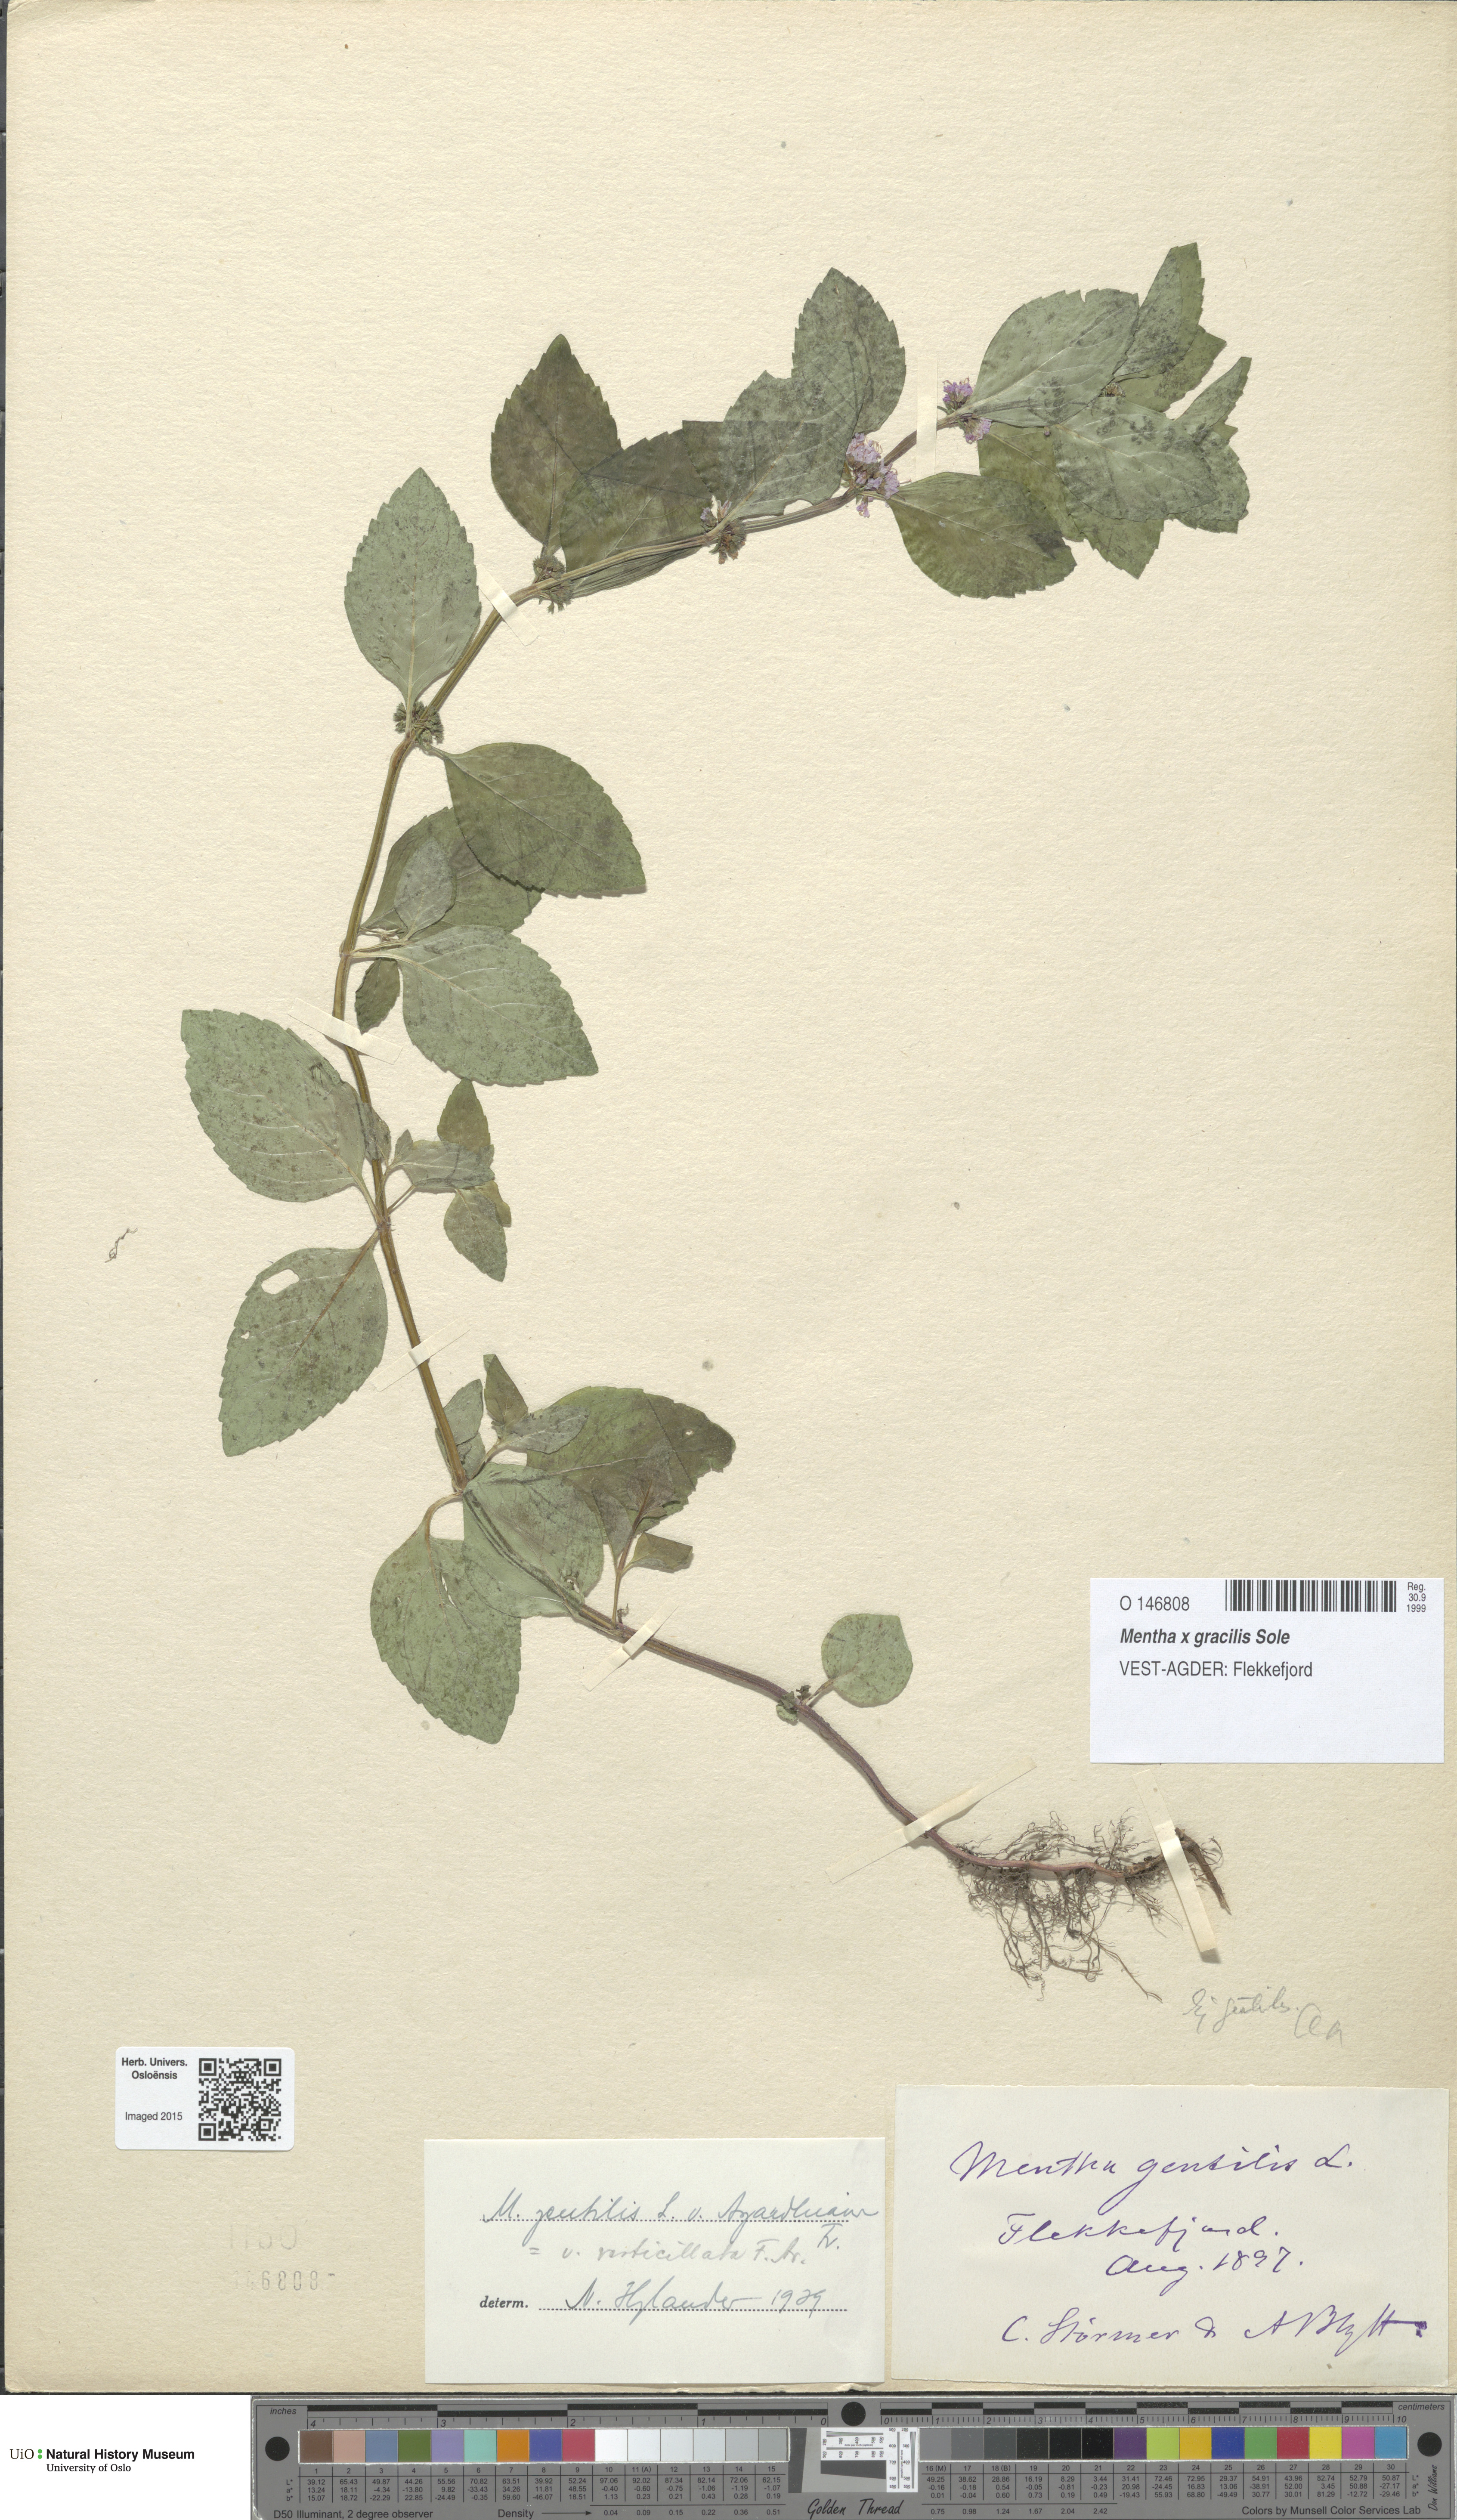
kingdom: Plantae
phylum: Tracheophyta
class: Magnoliopsida
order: Lamiales
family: Lamiaceae
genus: Mentha
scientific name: Mentha arvensis
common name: Corn mint
